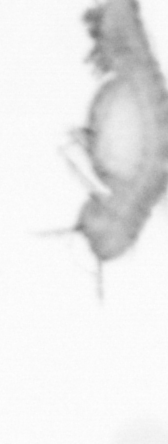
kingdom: Animalia
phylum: Annelida
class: Polychaeta
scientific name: Polychaeta
